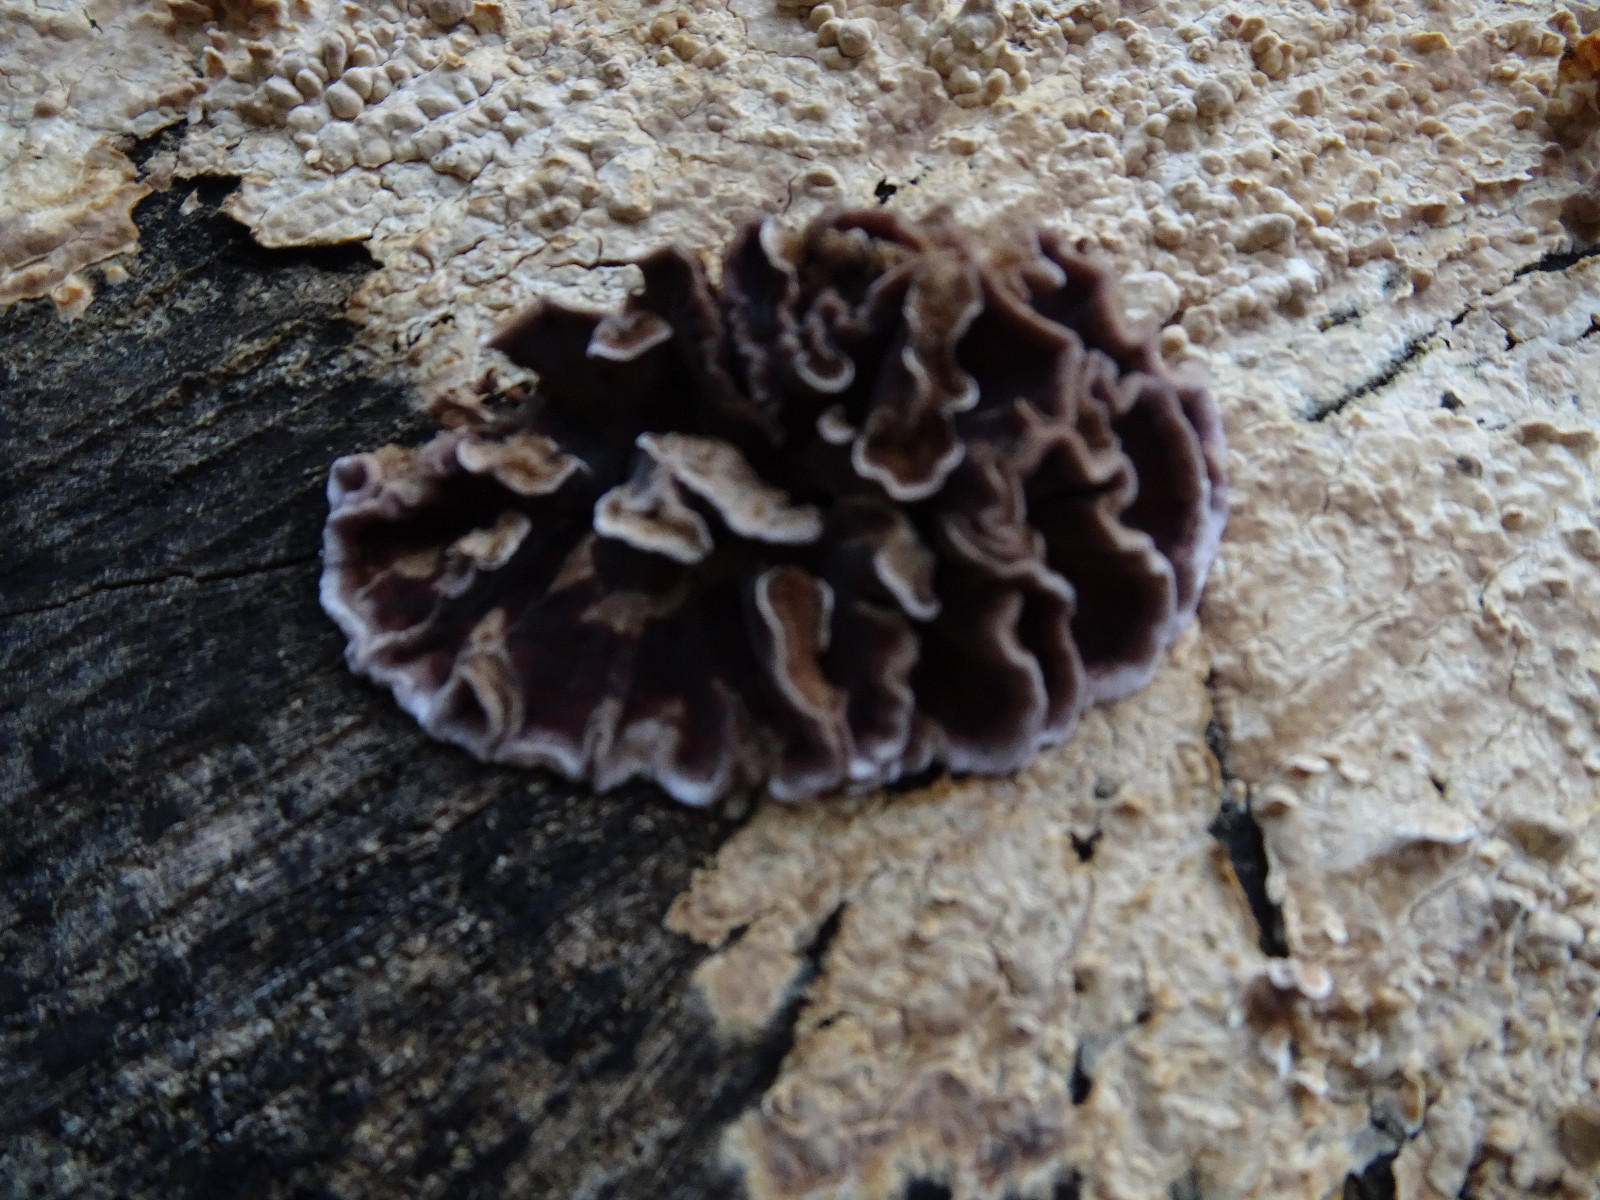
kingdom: Fungi
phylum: Basidiomycota
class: Agaricomycetes
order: Agaricales
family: Cyphellaceae
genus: Chondrostereum
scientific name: Chondrostereum purpureum
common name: purpurlædersvamp
